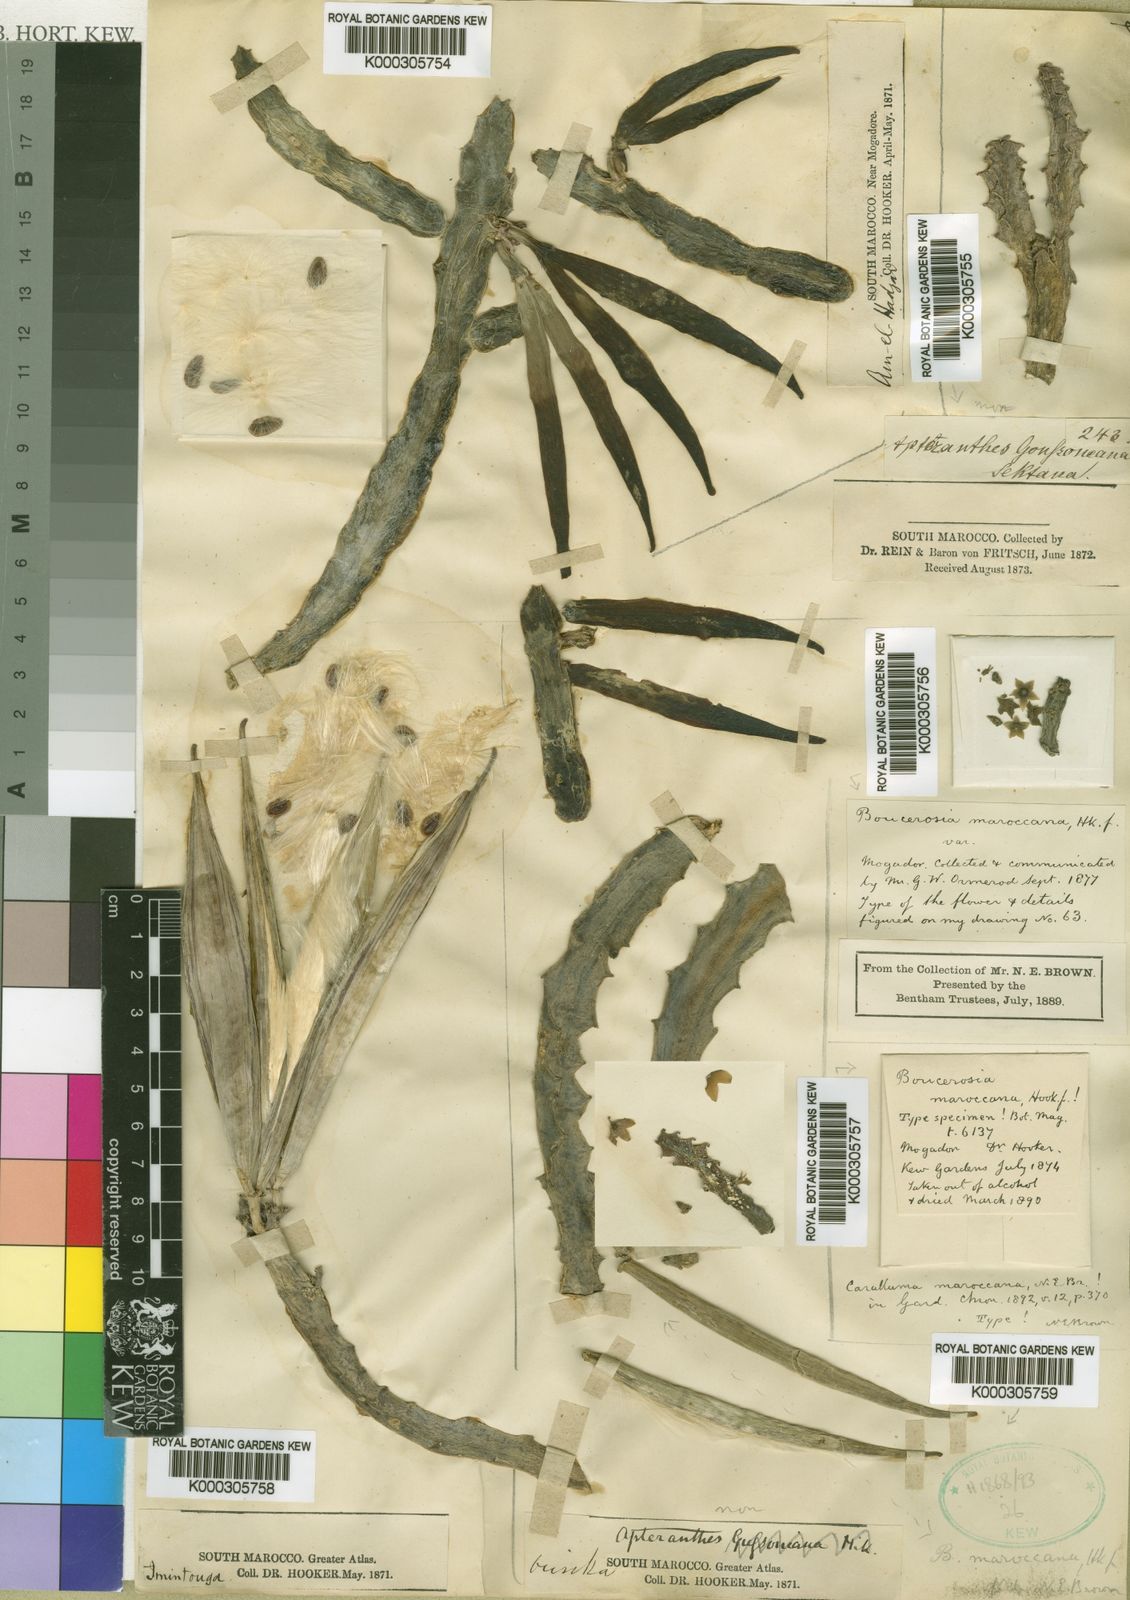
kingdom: Plantae
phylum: Tracheophyta
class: Magnoliopsida
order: Gentianales
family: Apocynaceae
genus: Ceropegia
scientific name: Ceropegia europaea
